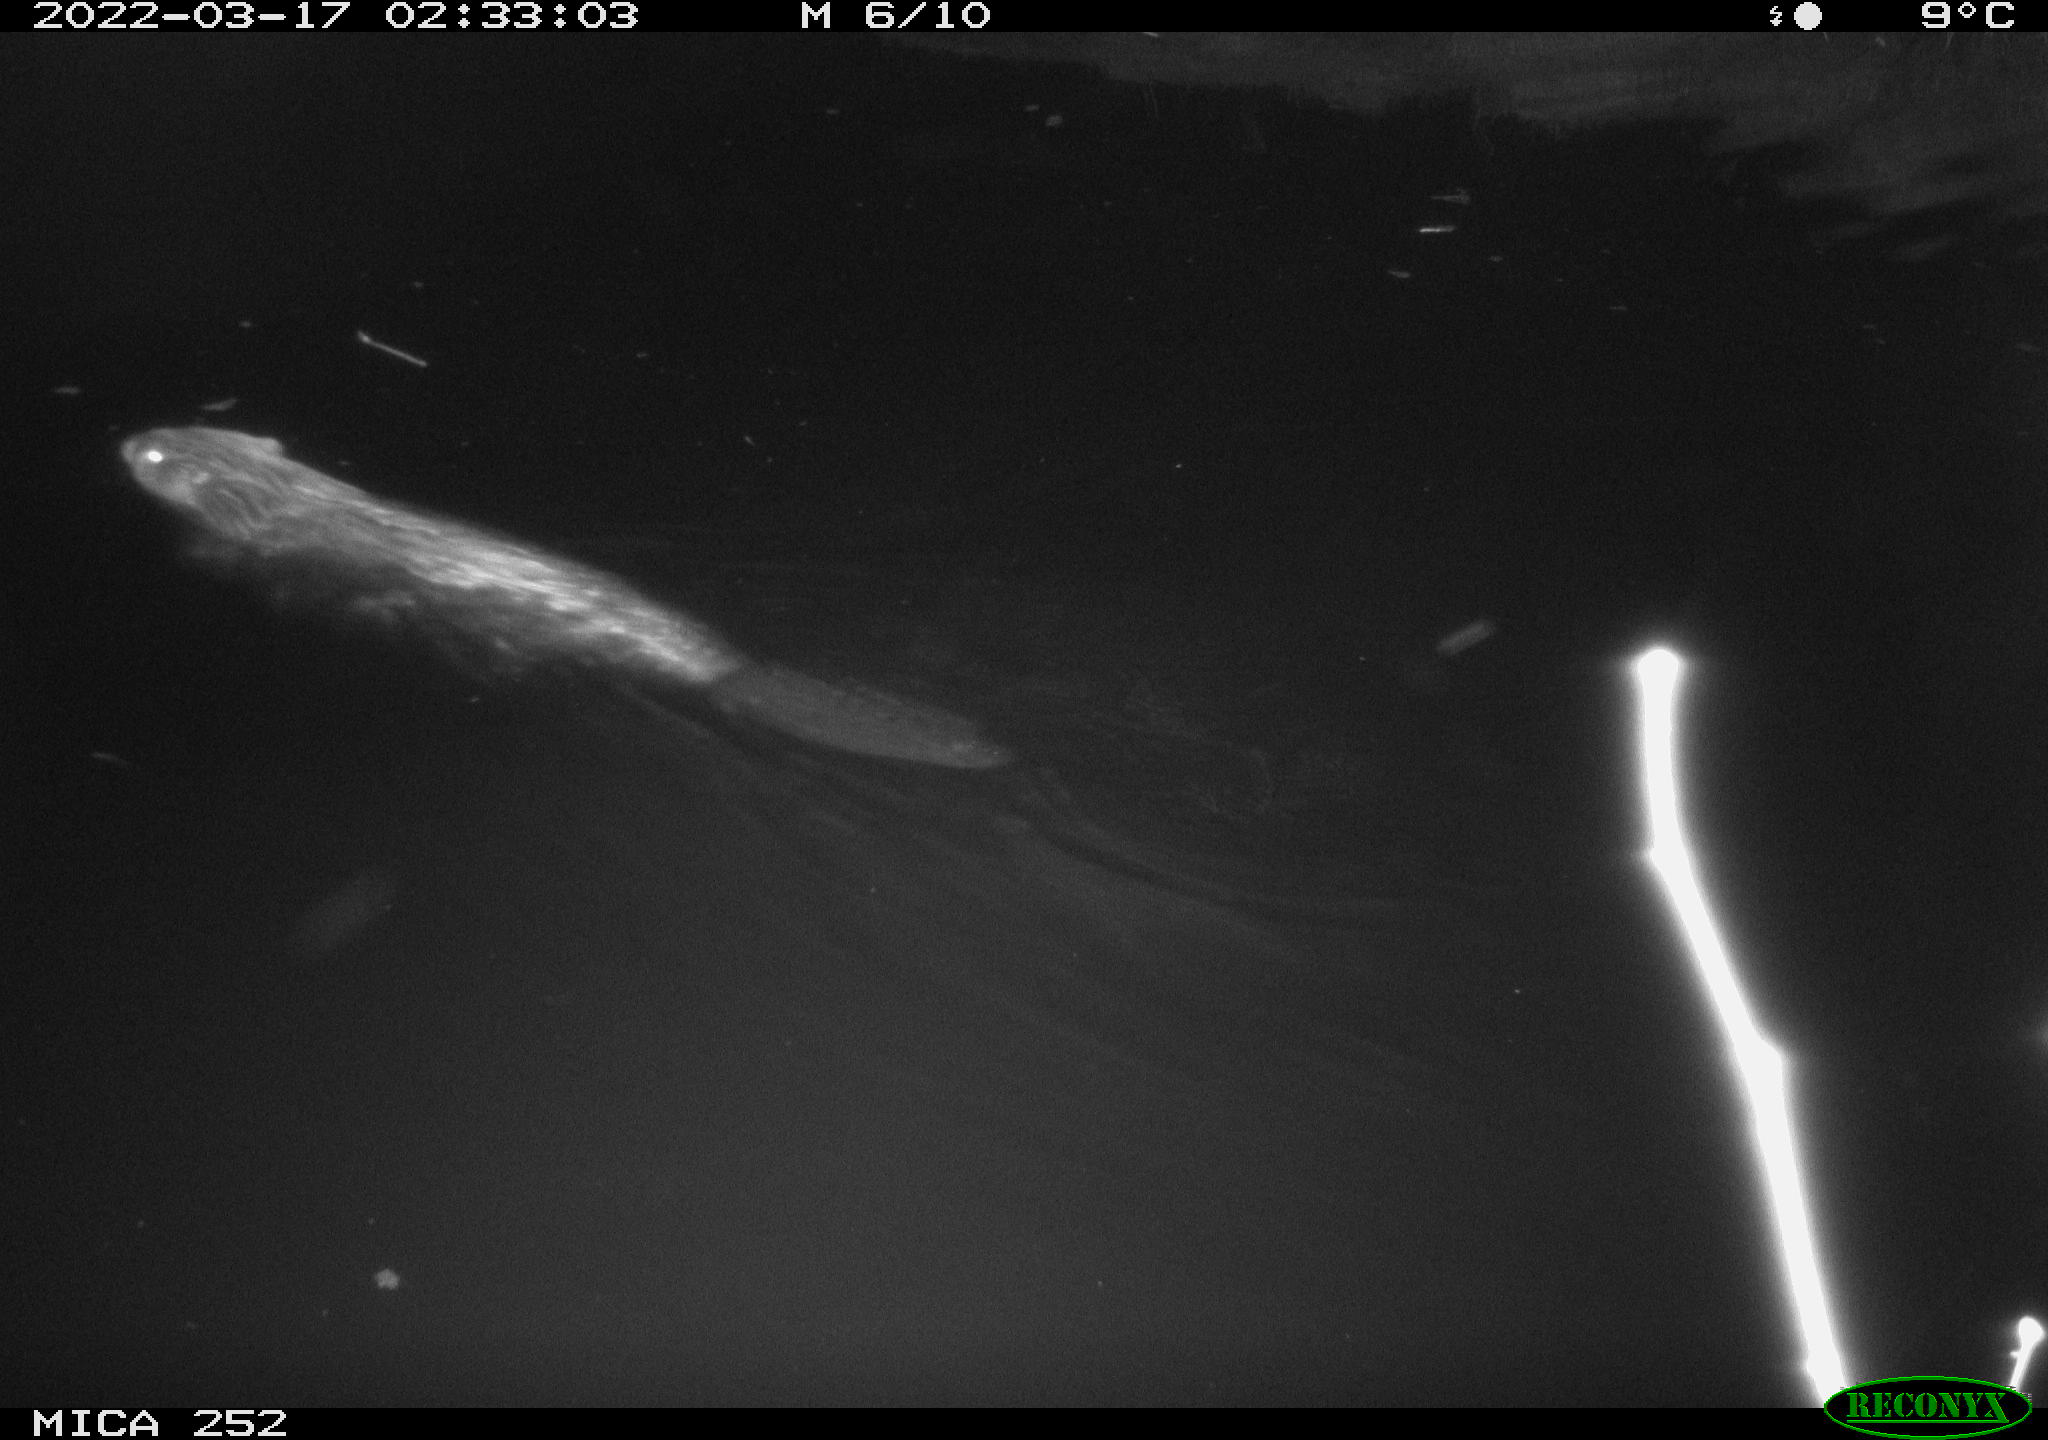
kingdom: Animalia
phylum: Chordata
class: Mammalia
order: Rodentia
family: Castoridae
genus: Castor
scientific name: Castor fiber
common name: Eurasian beaver
